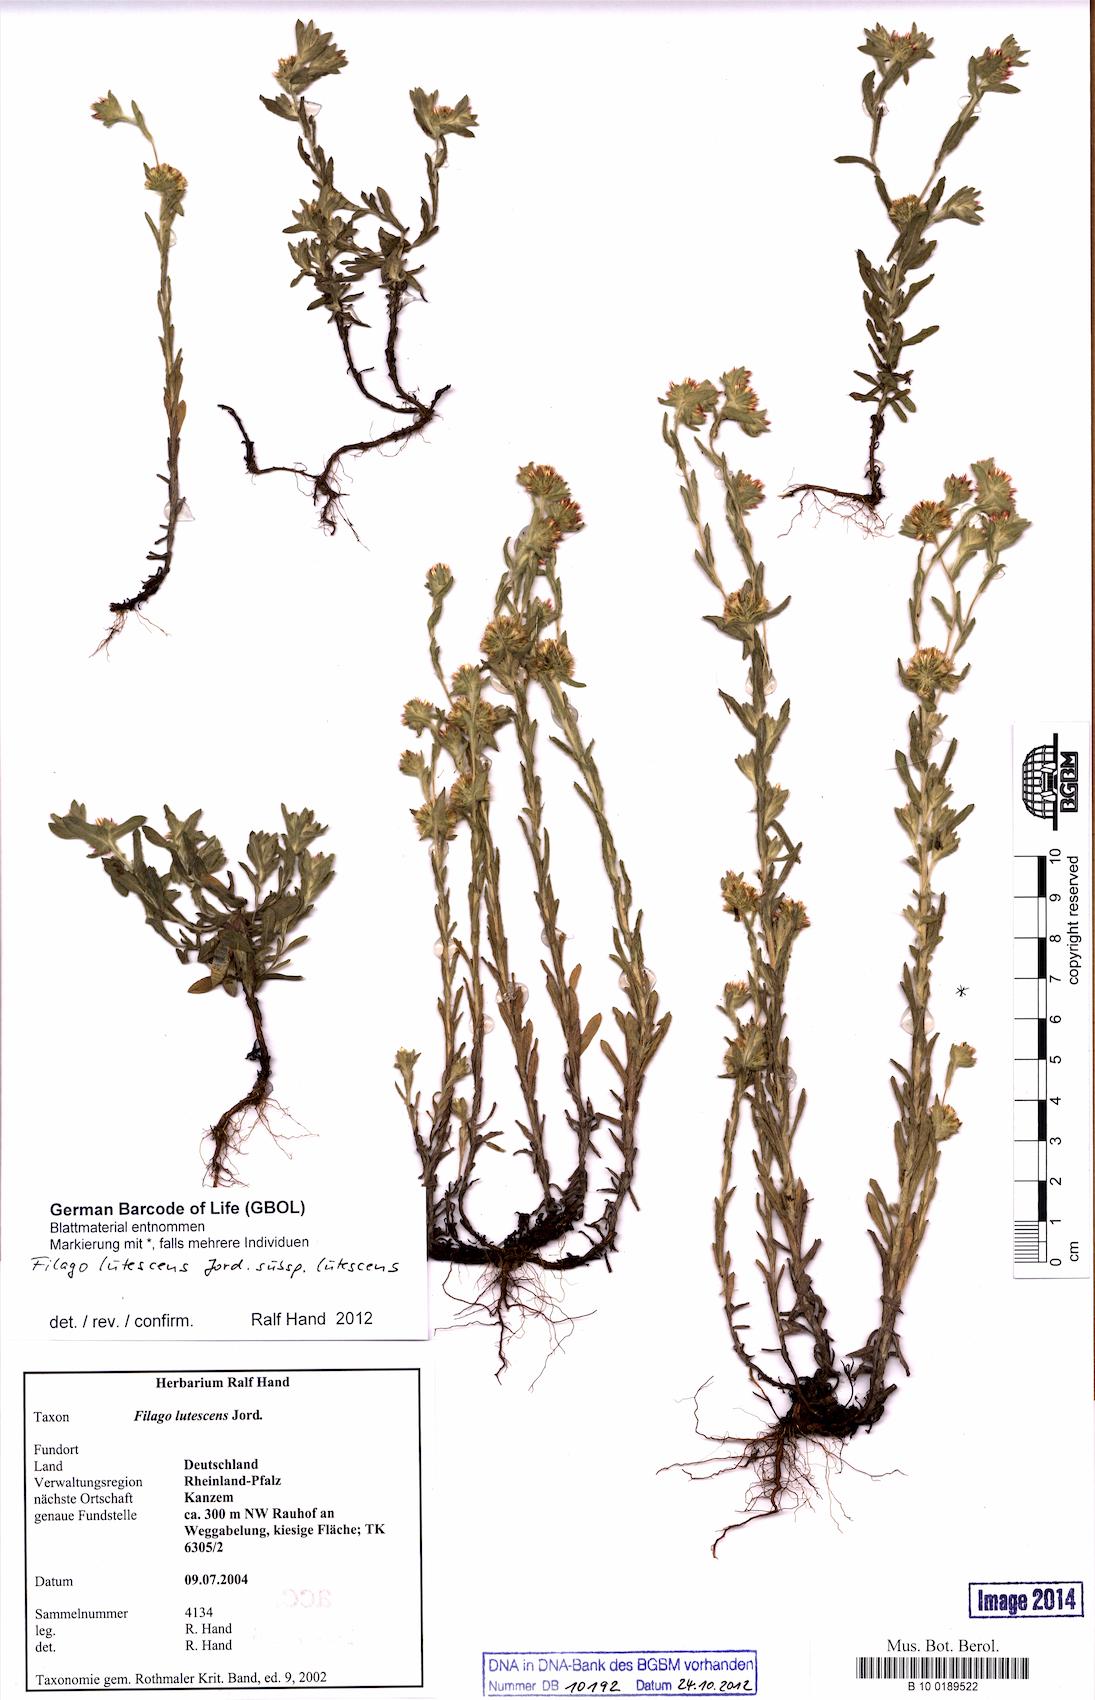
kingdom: Plantae
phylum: Tracheophyta
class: Magnoliopsida
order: Asterales
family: Asteraceae
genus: Filago
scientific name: Filago lutescens
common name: Red-tipped cudweed
